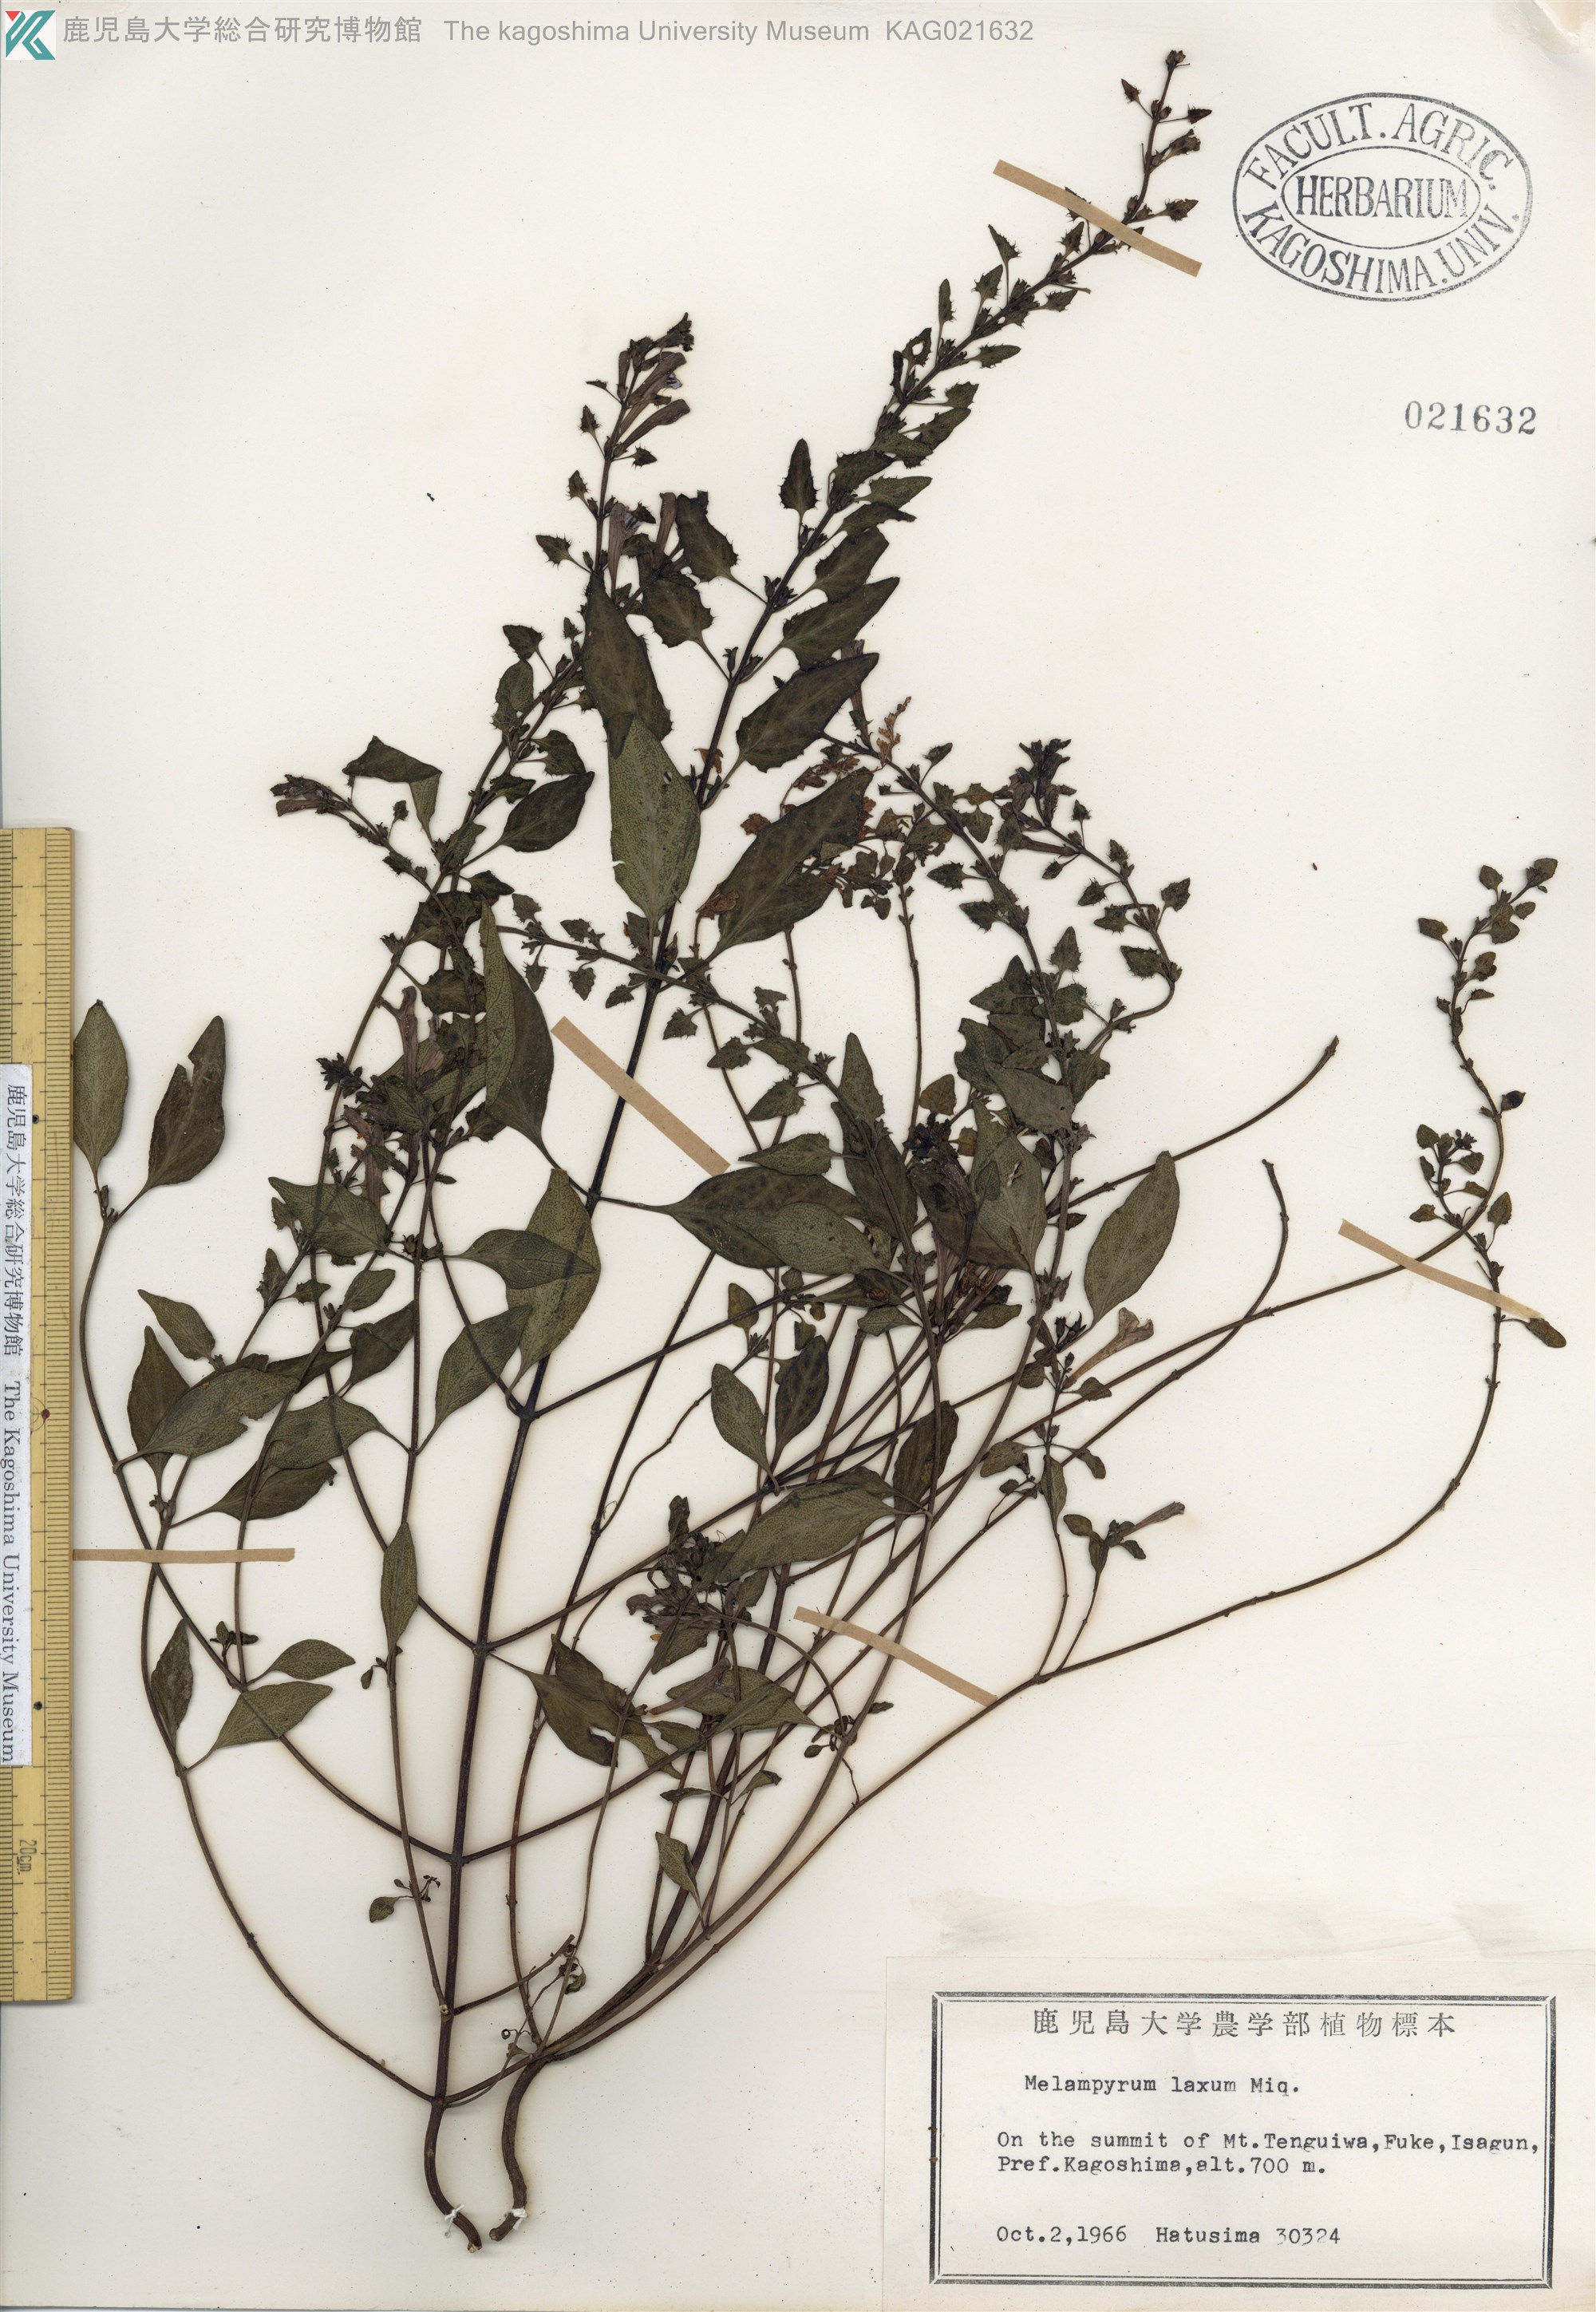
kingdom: Plantae
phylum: Tracheophyta
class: Magnoliopsida
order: Lamiales
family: Orobanchaceae
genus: Melampyrum
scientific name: Melampyrum laxum
